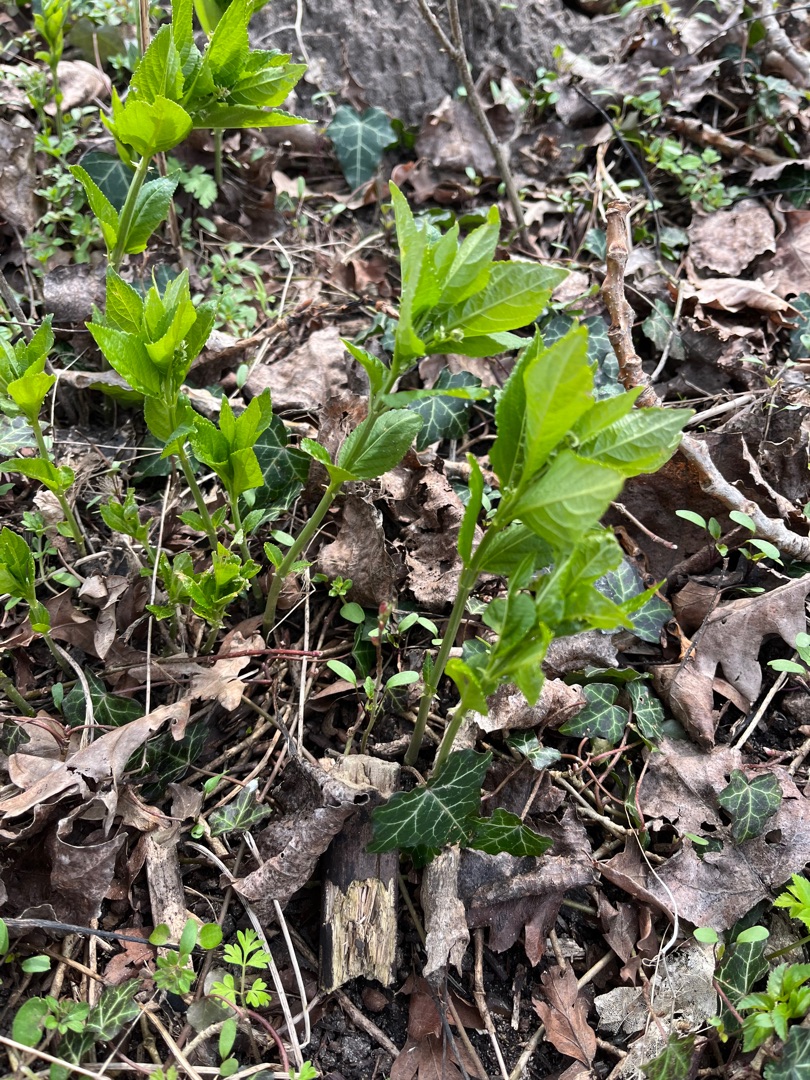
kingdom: Plantae
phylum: Tracheophyta
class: Magnoliopsida
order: Malpighiales
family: Euphorbiaceae
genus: Mercurialis
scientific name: Mercurialis perennis
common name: Almindelig bingelurt
